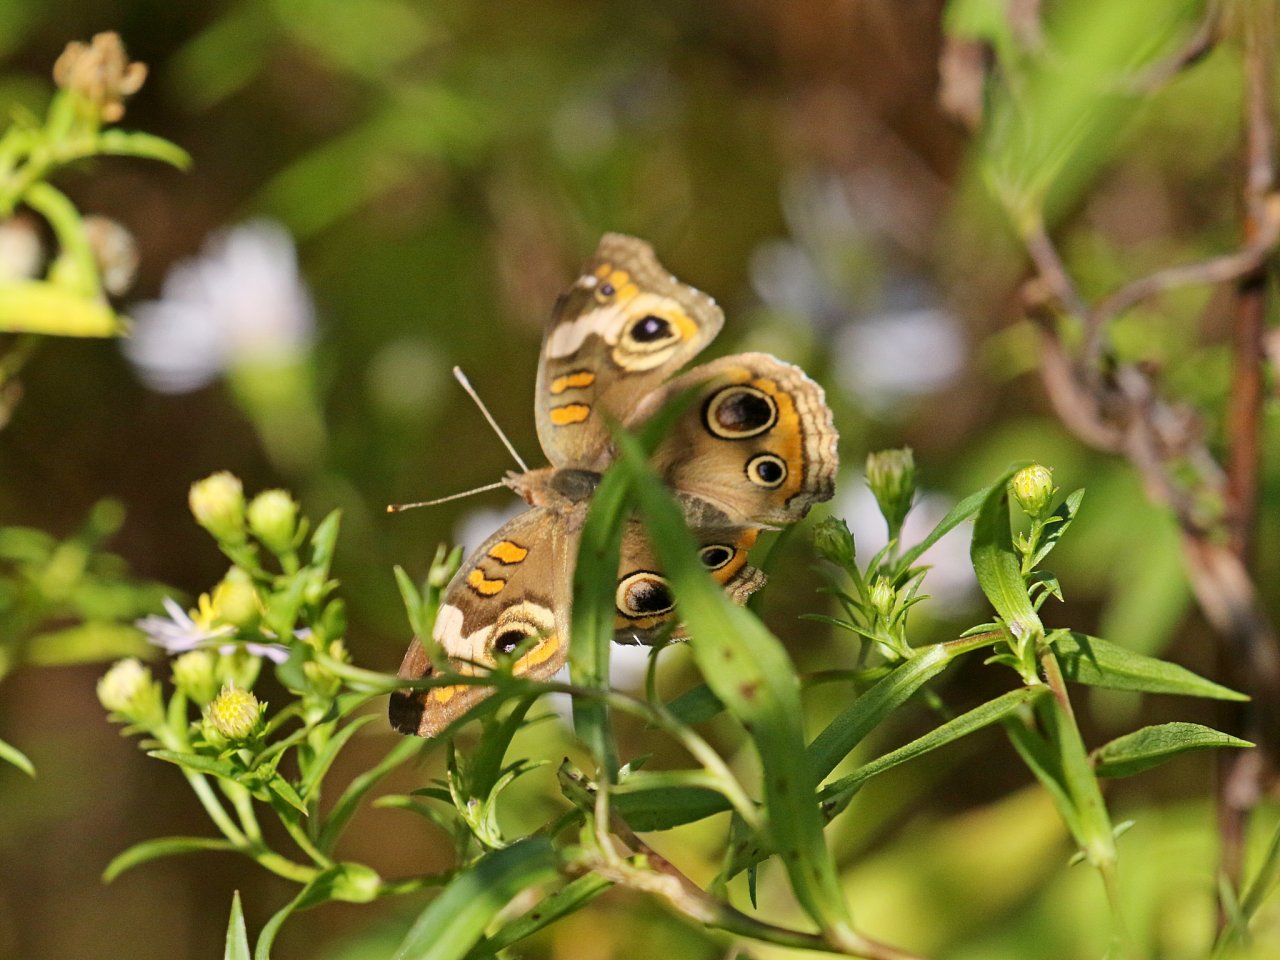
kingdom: Animalia
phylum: Arthropoda
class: Insecta
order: Lepidoptera
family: Nymphalidae
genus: Junonia
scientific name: Junonia coenia
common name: Common Buckeye
